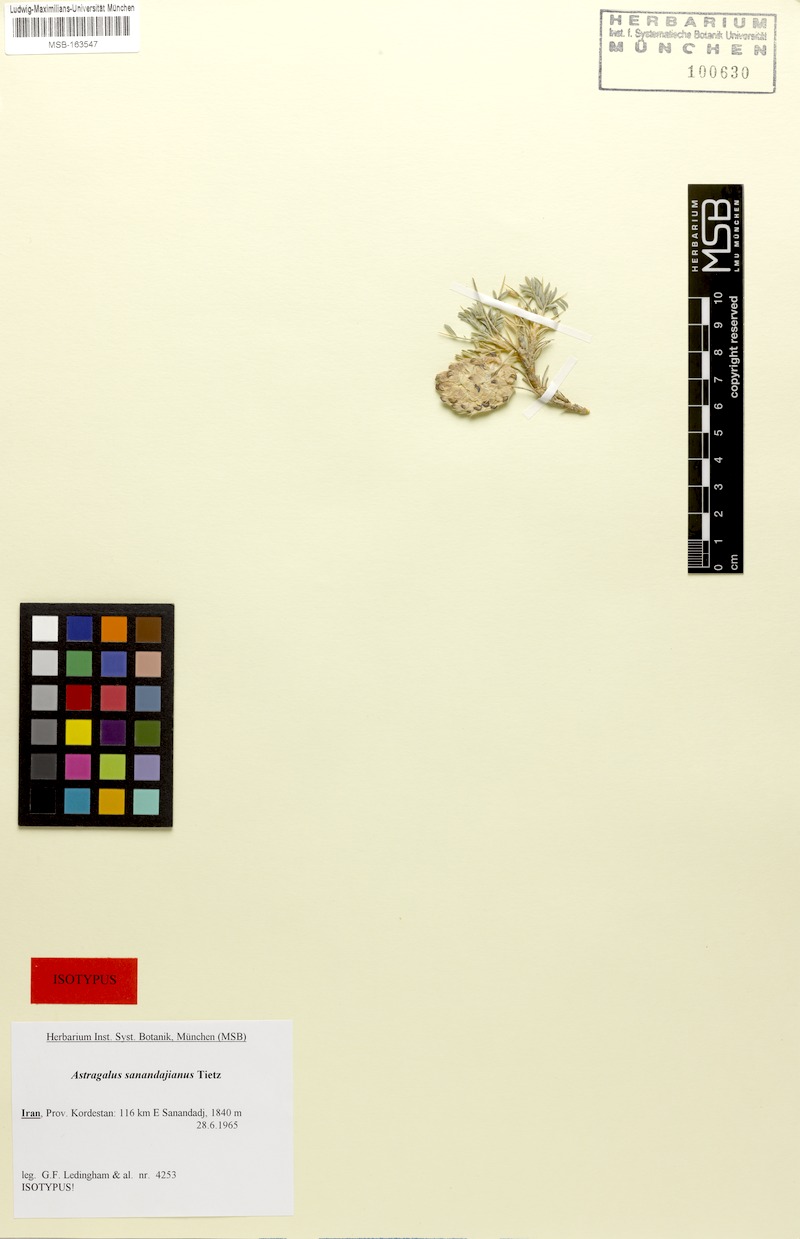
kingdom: Plantae
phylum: Tracheophyta
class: Magnoliopsida
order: Fabales
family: Fabaceae
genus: Astragalus
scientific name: Astragalus sanandajianus
